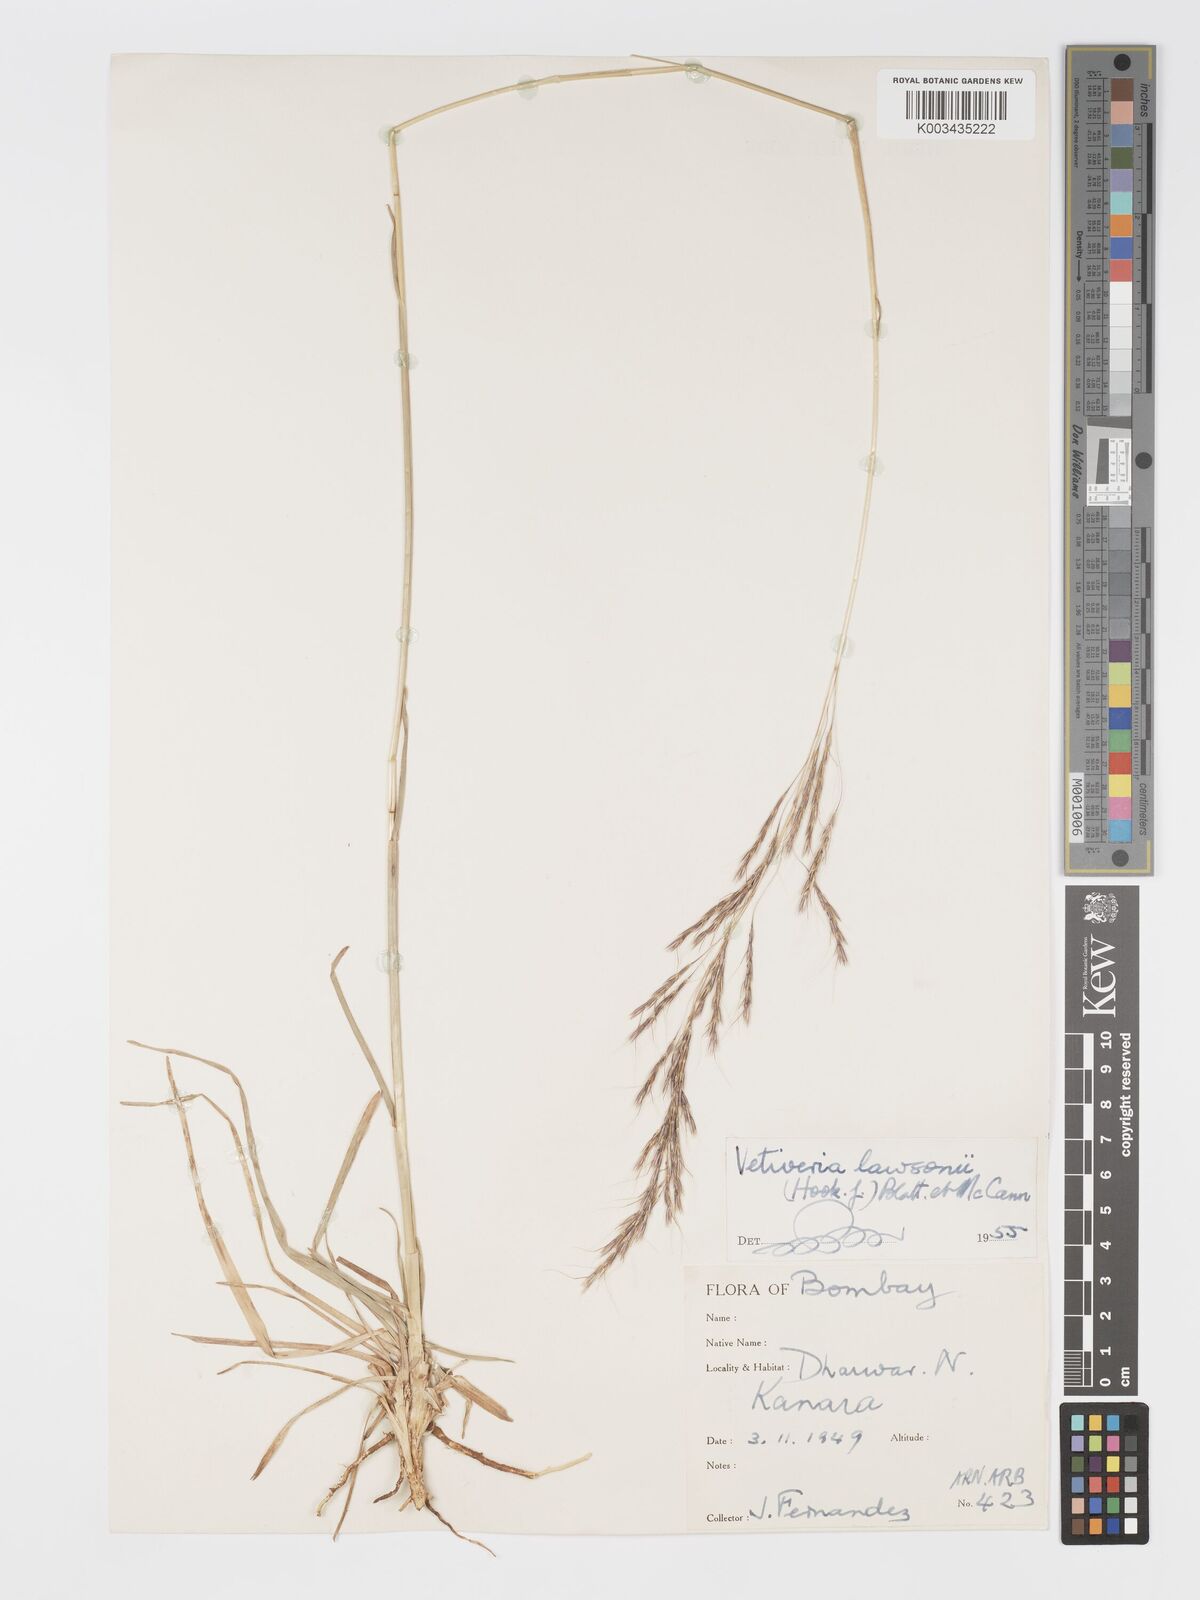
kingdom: Plantae
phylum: Tracheophyta
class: Liliopsida
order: Poales
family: Poaceae
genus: Chrysopogon
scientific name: Chrysopogon lawsonii
